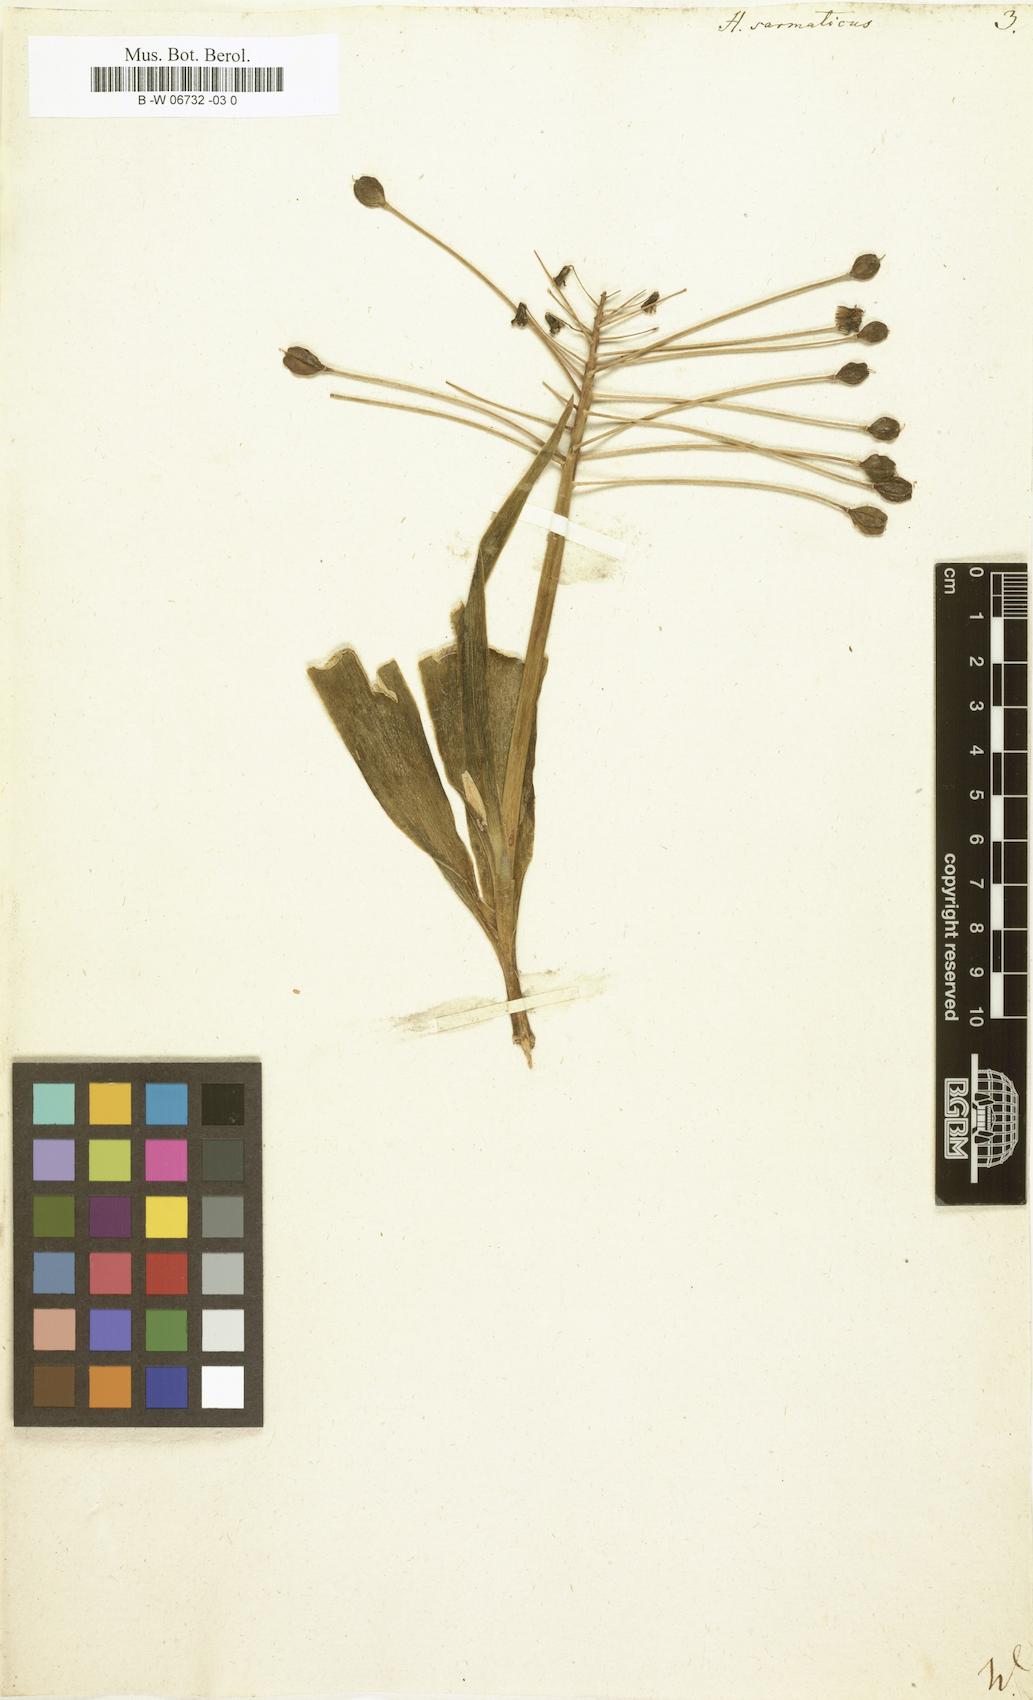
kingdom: Plantae
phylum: Tracheophyta
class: Liliopsida
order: Asparagales
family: Asparagaceae
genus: Bellevalia
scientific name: Bellevalia
